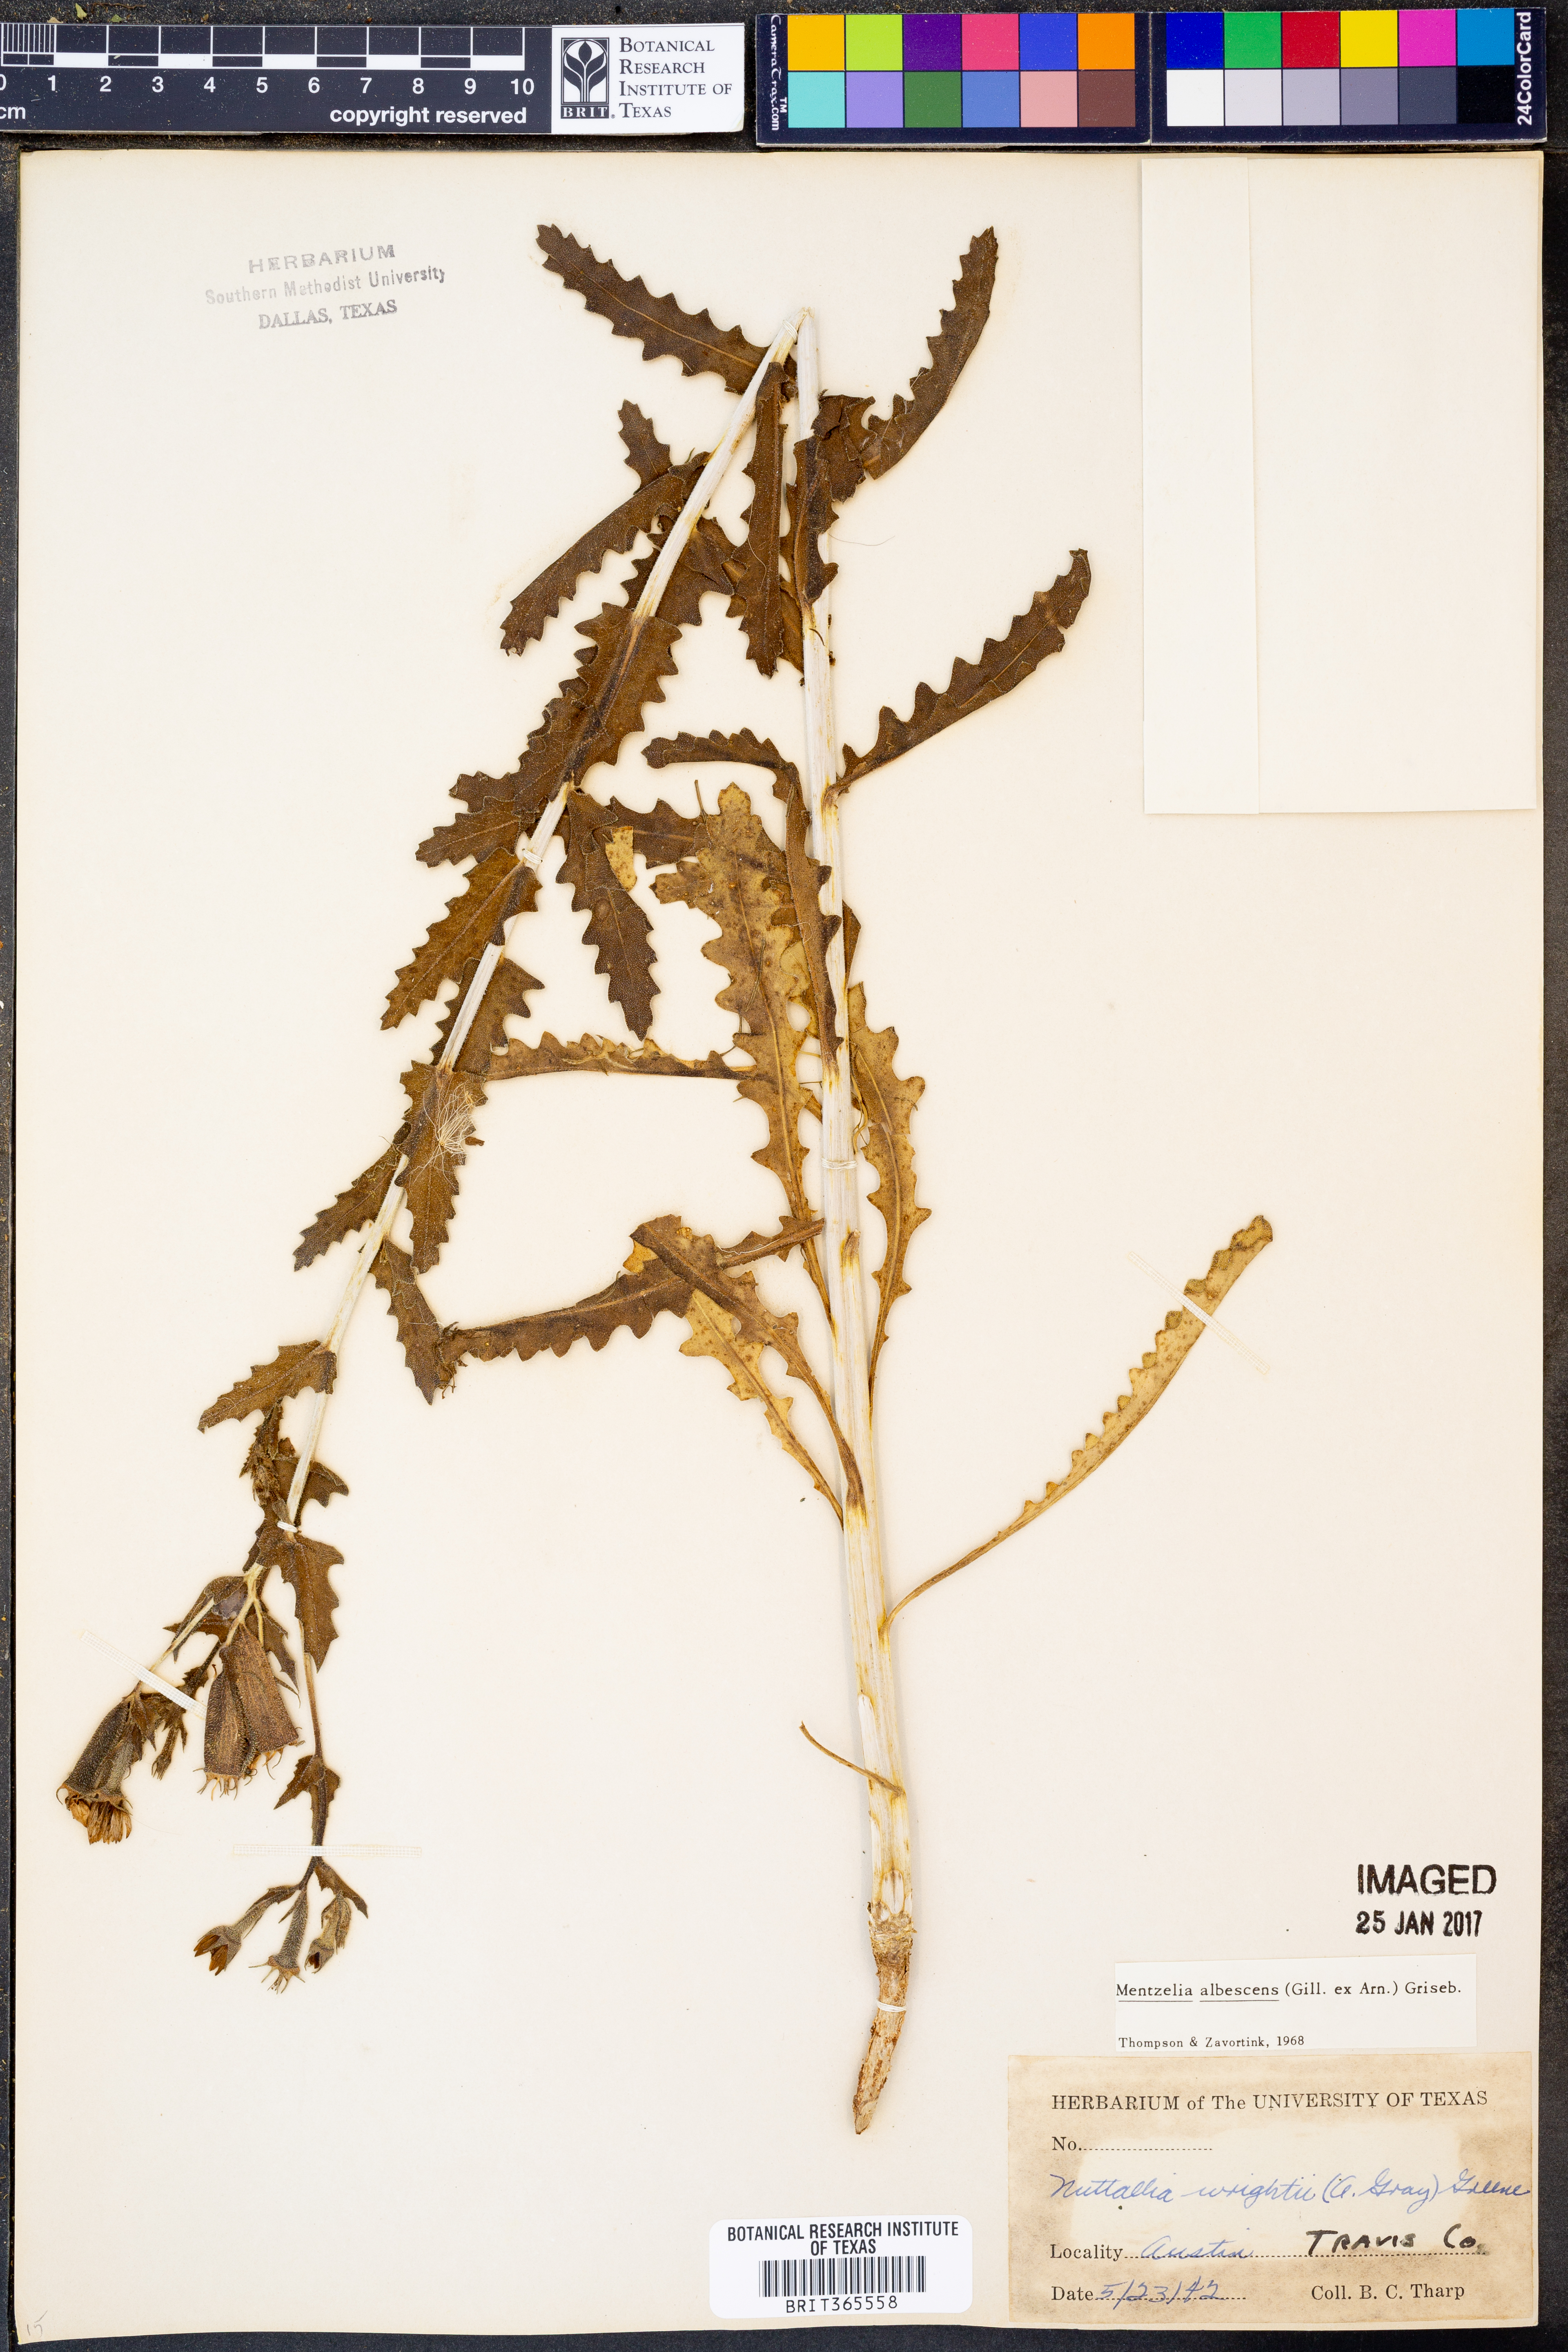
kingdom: Plantae
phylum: Tracheophyta
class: Magnoliopsida
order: Cornales
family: Loasaceae
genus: Mentzelia
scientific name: Mentzelia albescens
